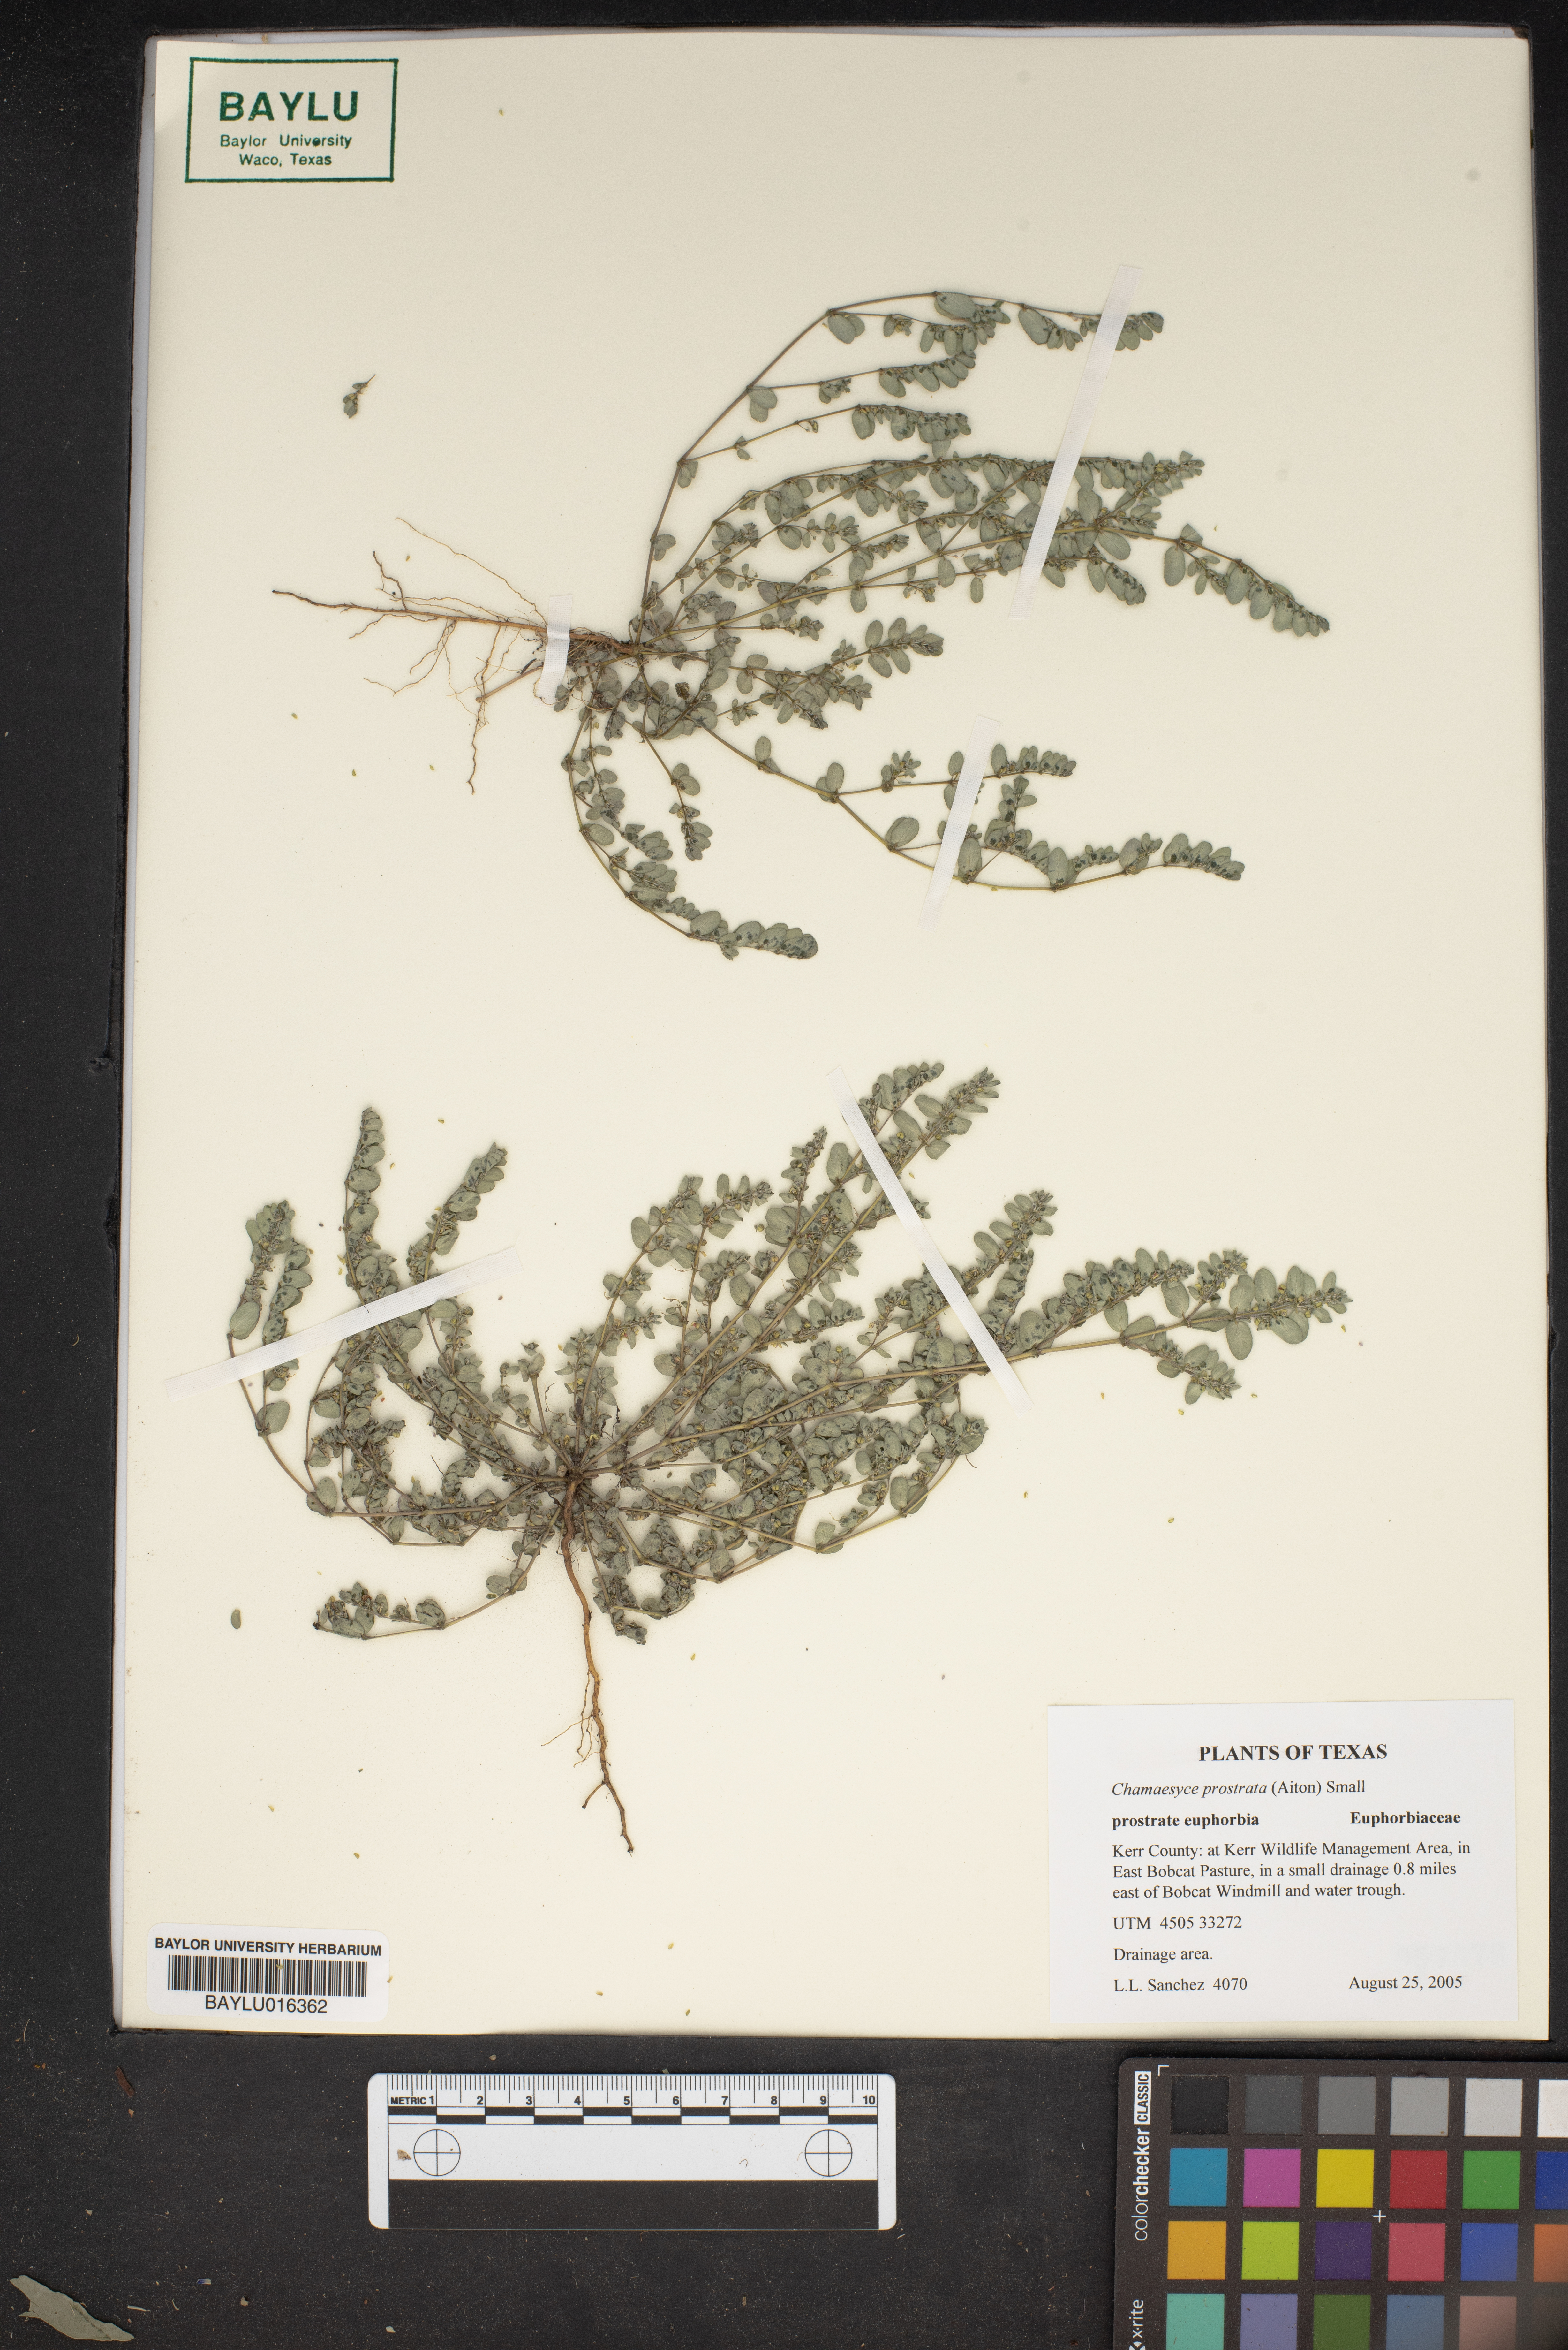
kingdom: Plantae
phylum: Tracheophyta
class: Magnoliopsida
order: Malpighiales
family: Euphorbiaceae
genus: Euphorbia
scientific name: Euphorbia prostrata
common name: Prostrate sandmat
